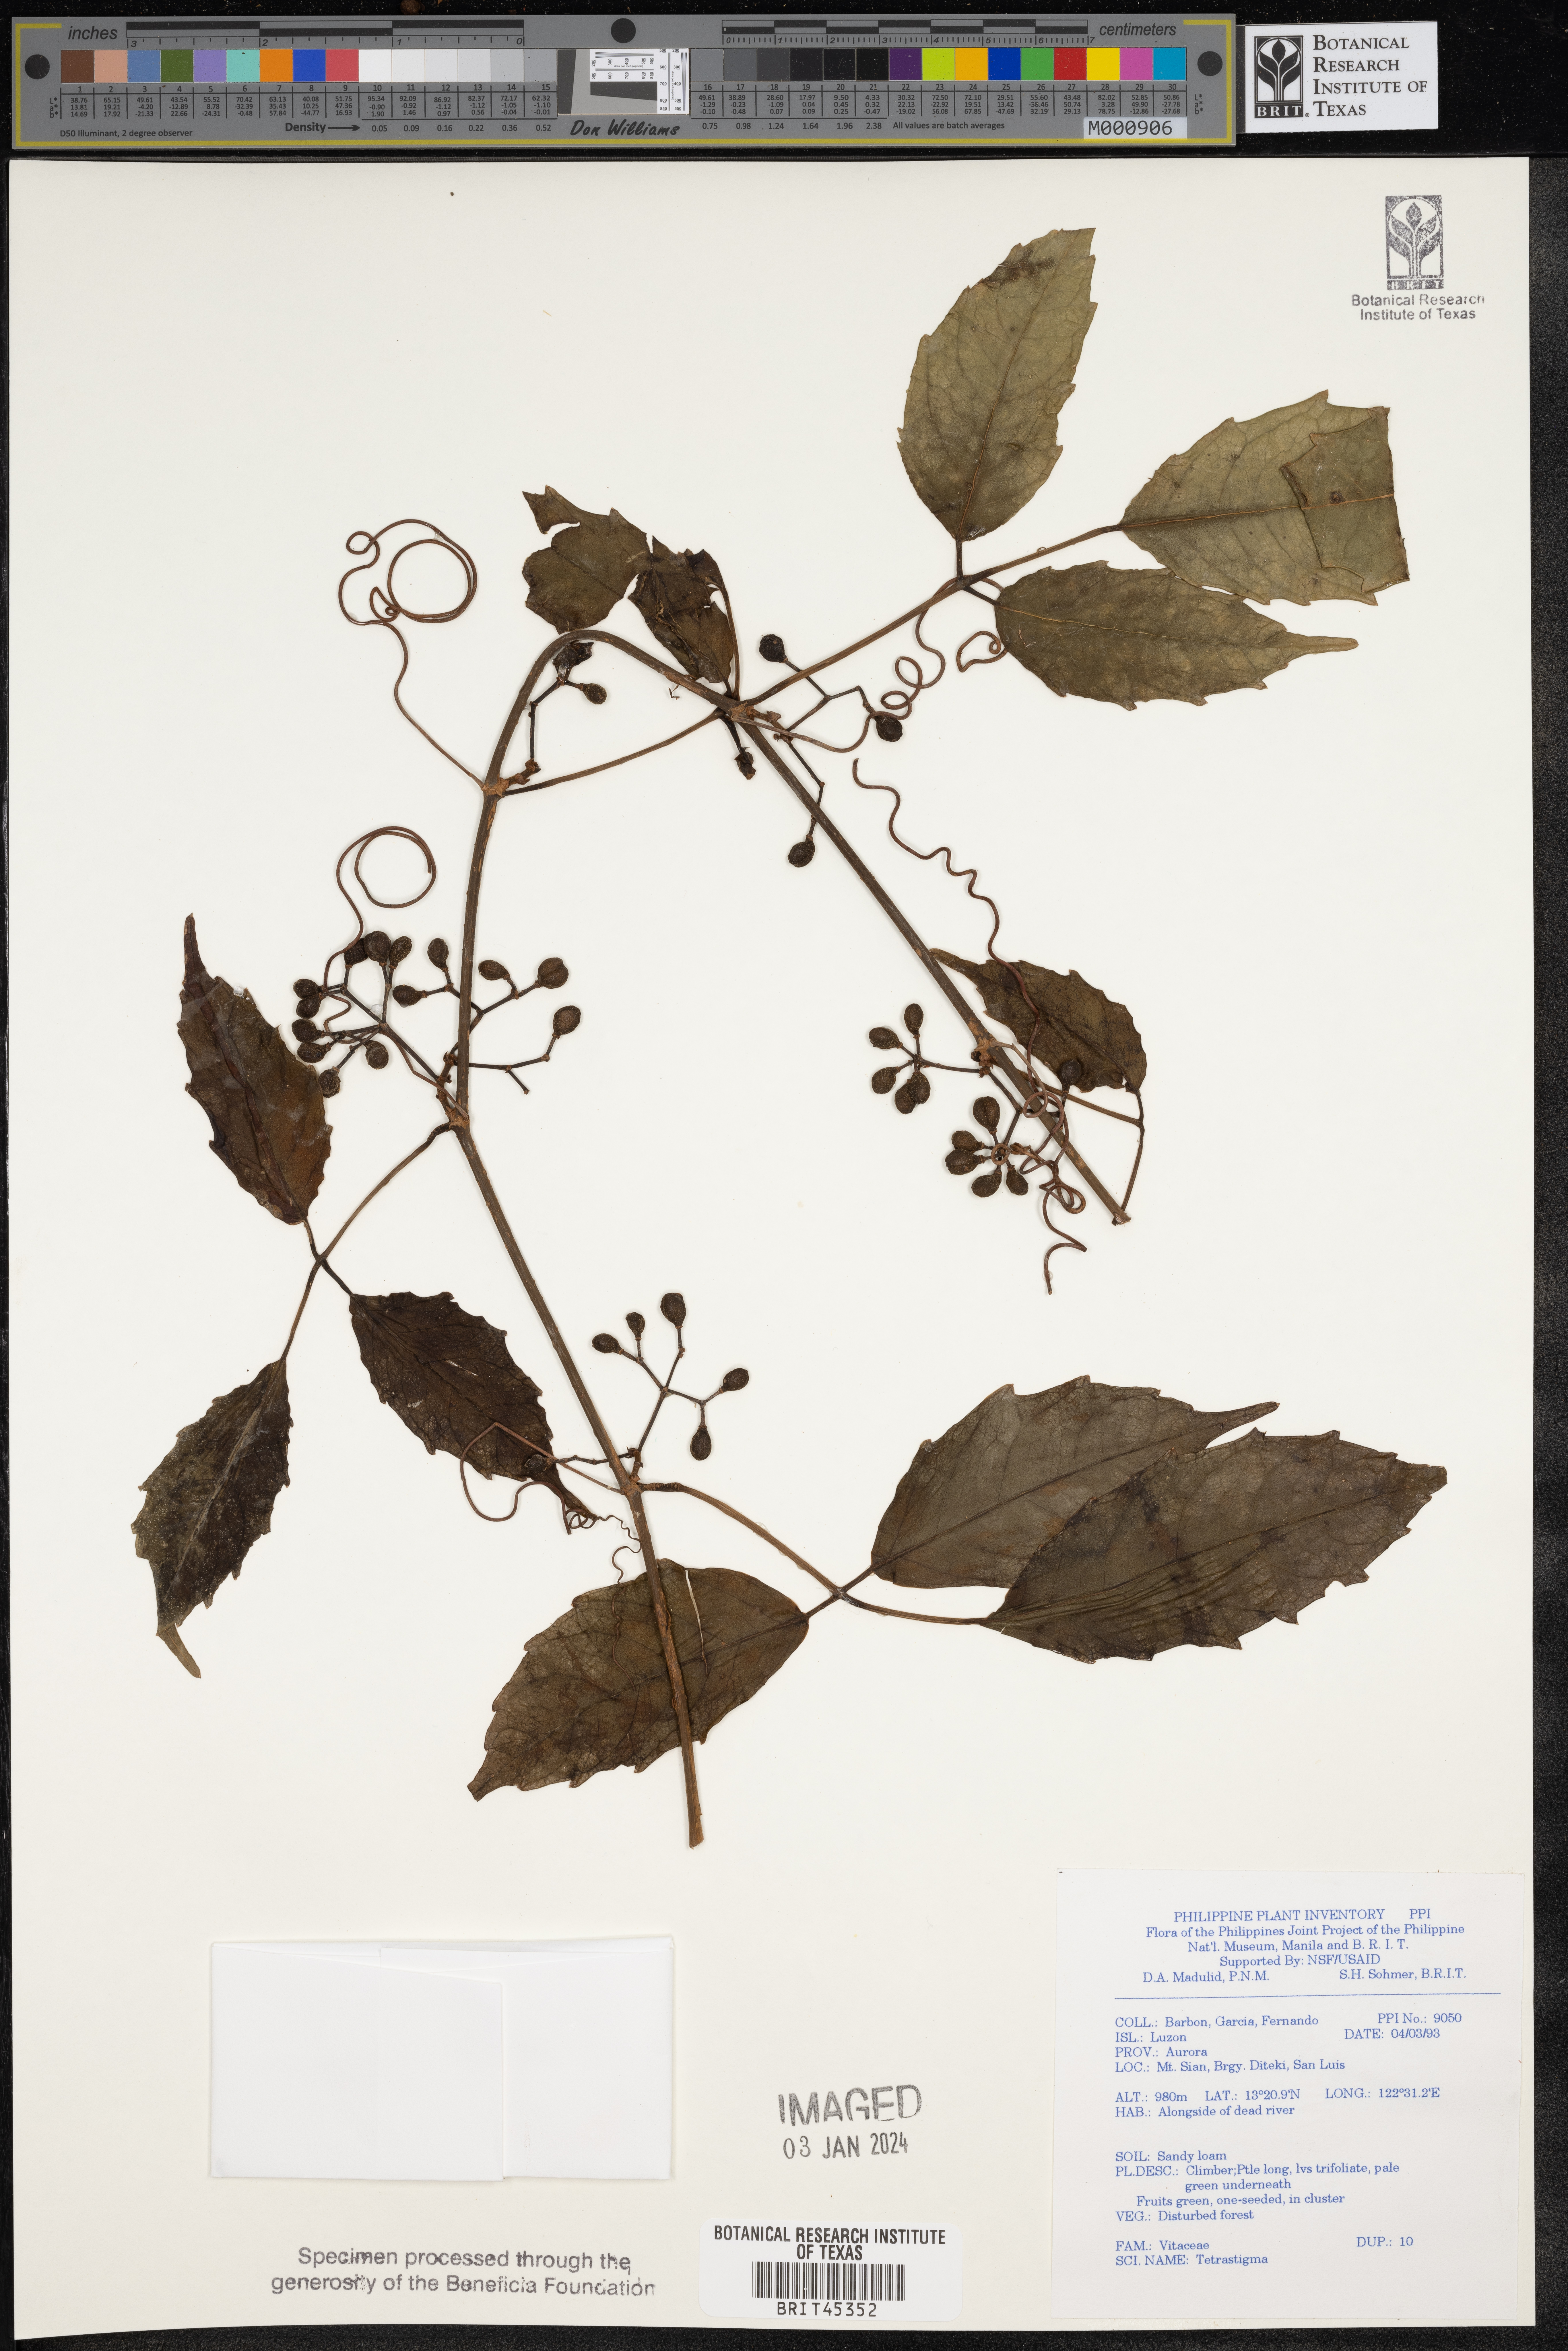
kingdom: Plantae
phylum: Tracheophyta
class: Magnoliopsida
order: Vitales
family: Vitaceae
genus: Tetrastigma
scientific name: Tetrastigma
